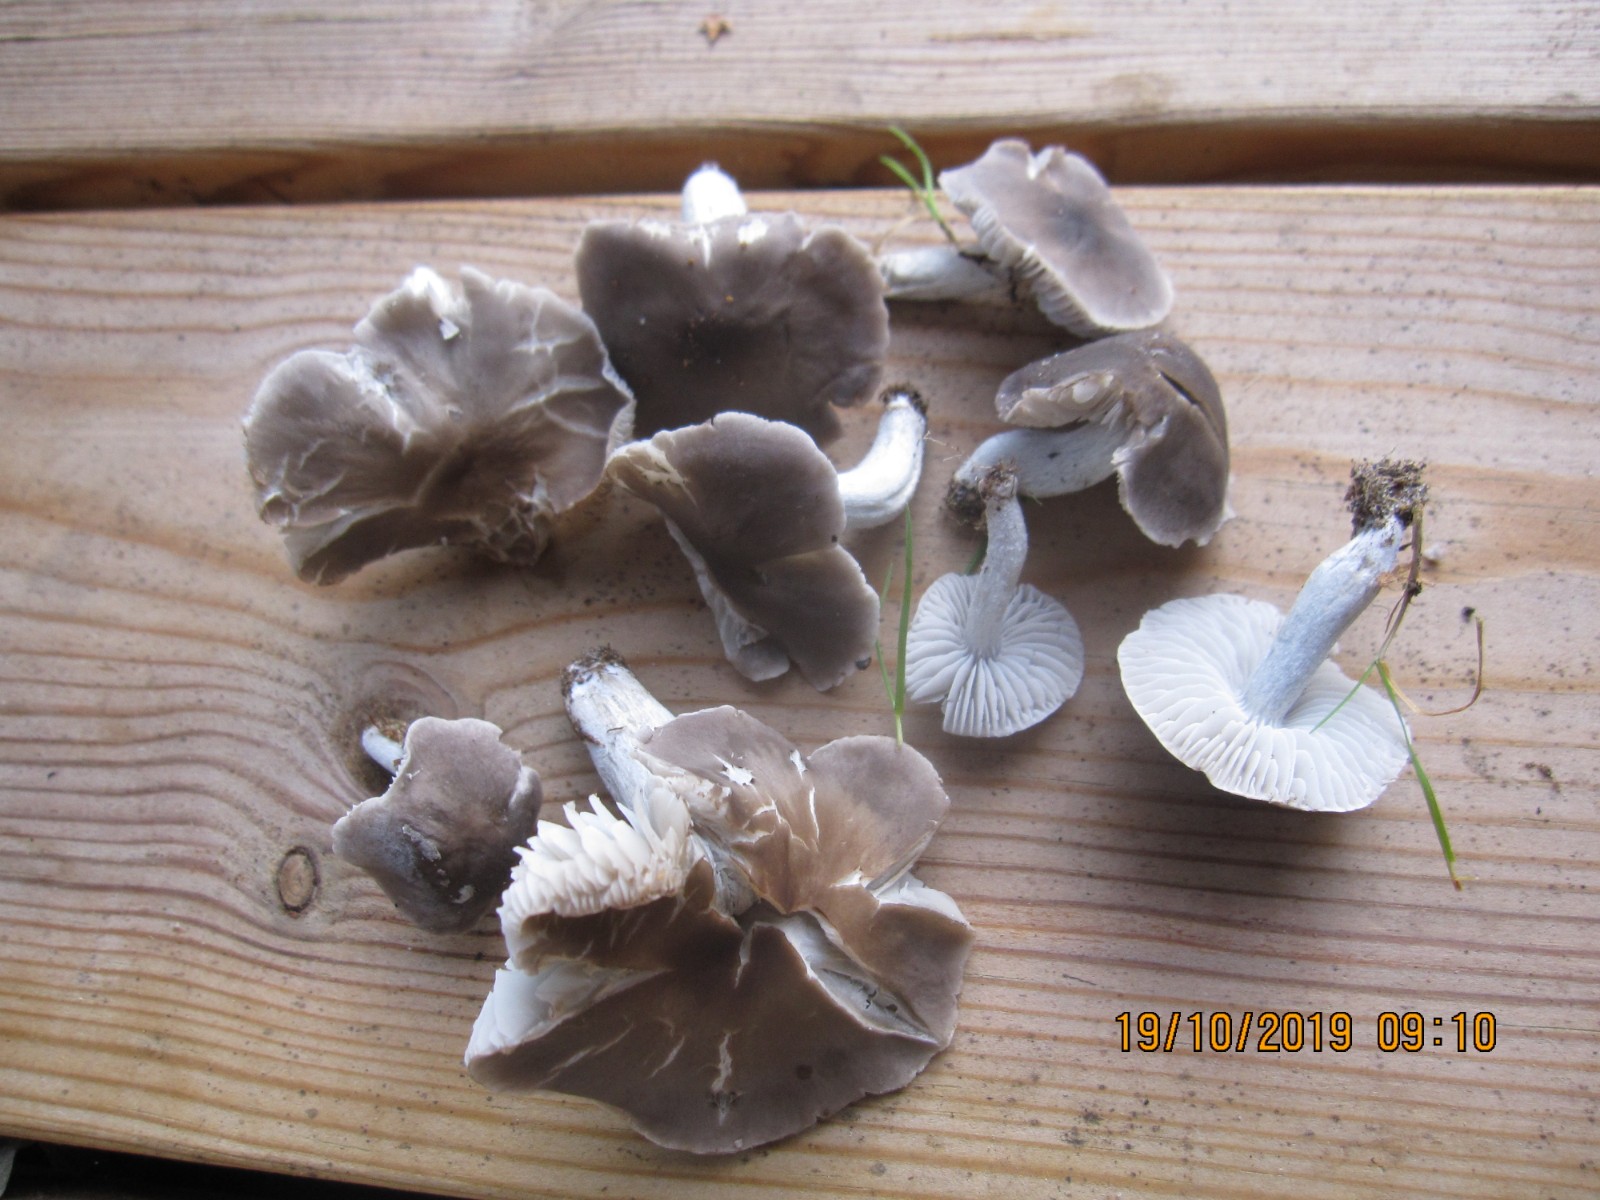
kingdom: Fungi
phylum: Basidiomycota
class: Agaricomycetes
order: Agaricales
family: Tricholomataceae
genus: Dermoloma
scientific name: Dermoloma cuneifolium
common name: eng-nonnehat
